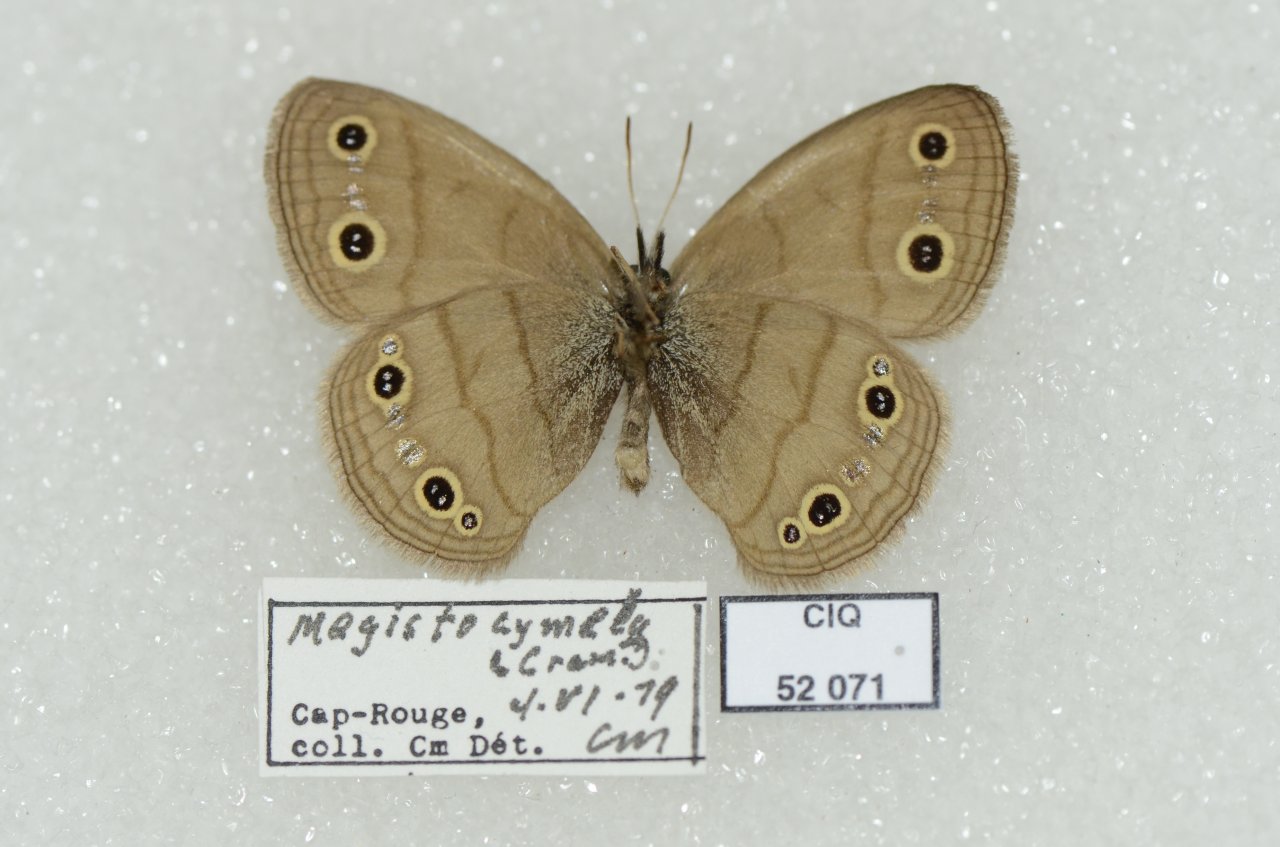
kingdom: Animalia
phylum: Arthropoda
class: Insecta
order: Lepidoptera
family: Nymphalidae
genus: Euptychia
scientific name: Euptychia cymela
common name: Little Wood Satyr
